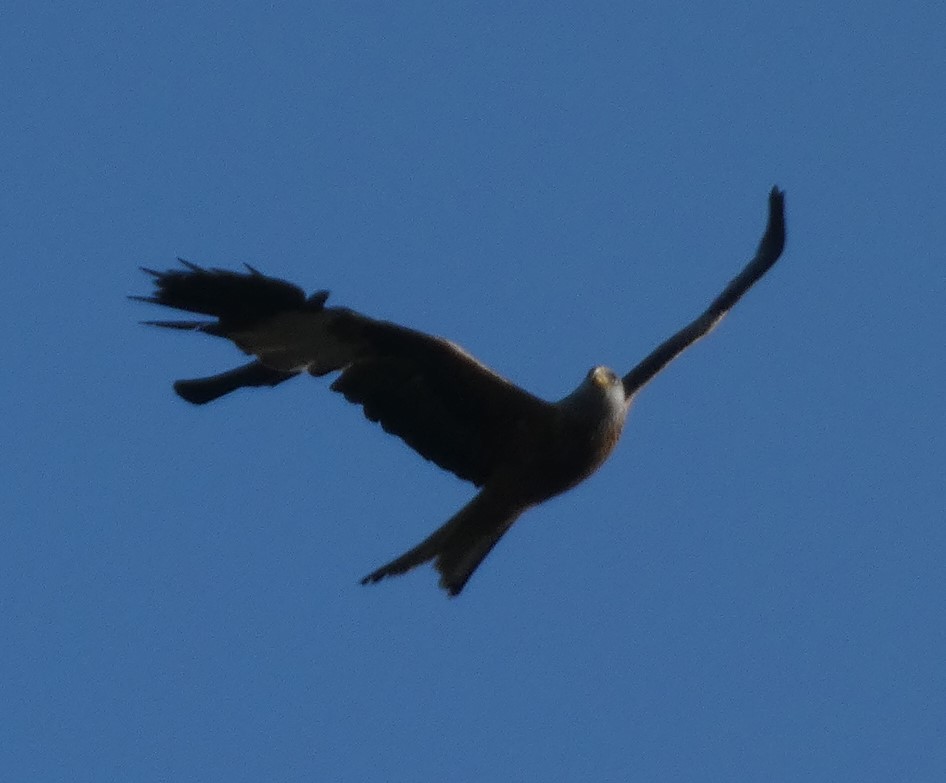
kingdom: Animalia
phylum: Chordata
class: Aves
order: Accipitriformes
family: Accipitridae
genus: Milvus
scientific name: Milvus milvus
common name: Rød glente
